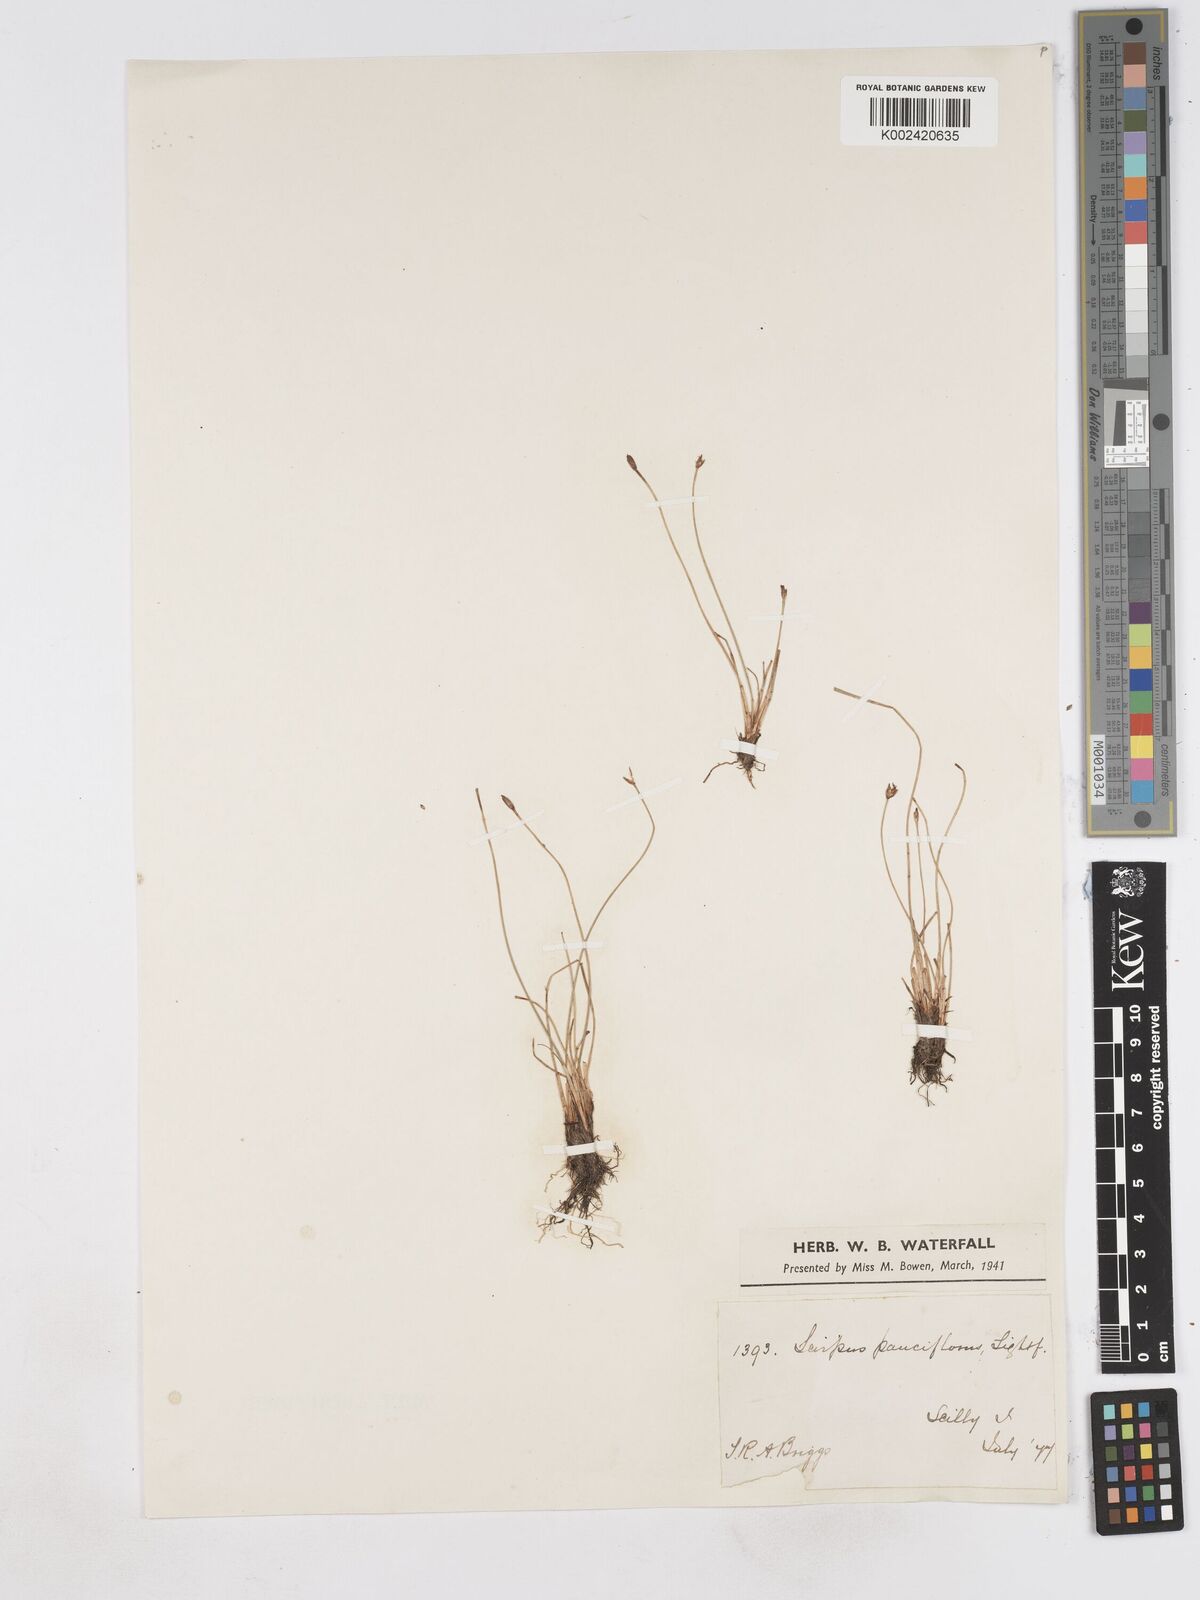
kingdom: Plantae
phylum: Tracheophyta
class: Liliopsida
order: Poales
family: Cyperaceae
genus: Eleocharis
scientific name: Eleocharis quinqueflora
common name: Few-flowered spike-rush
